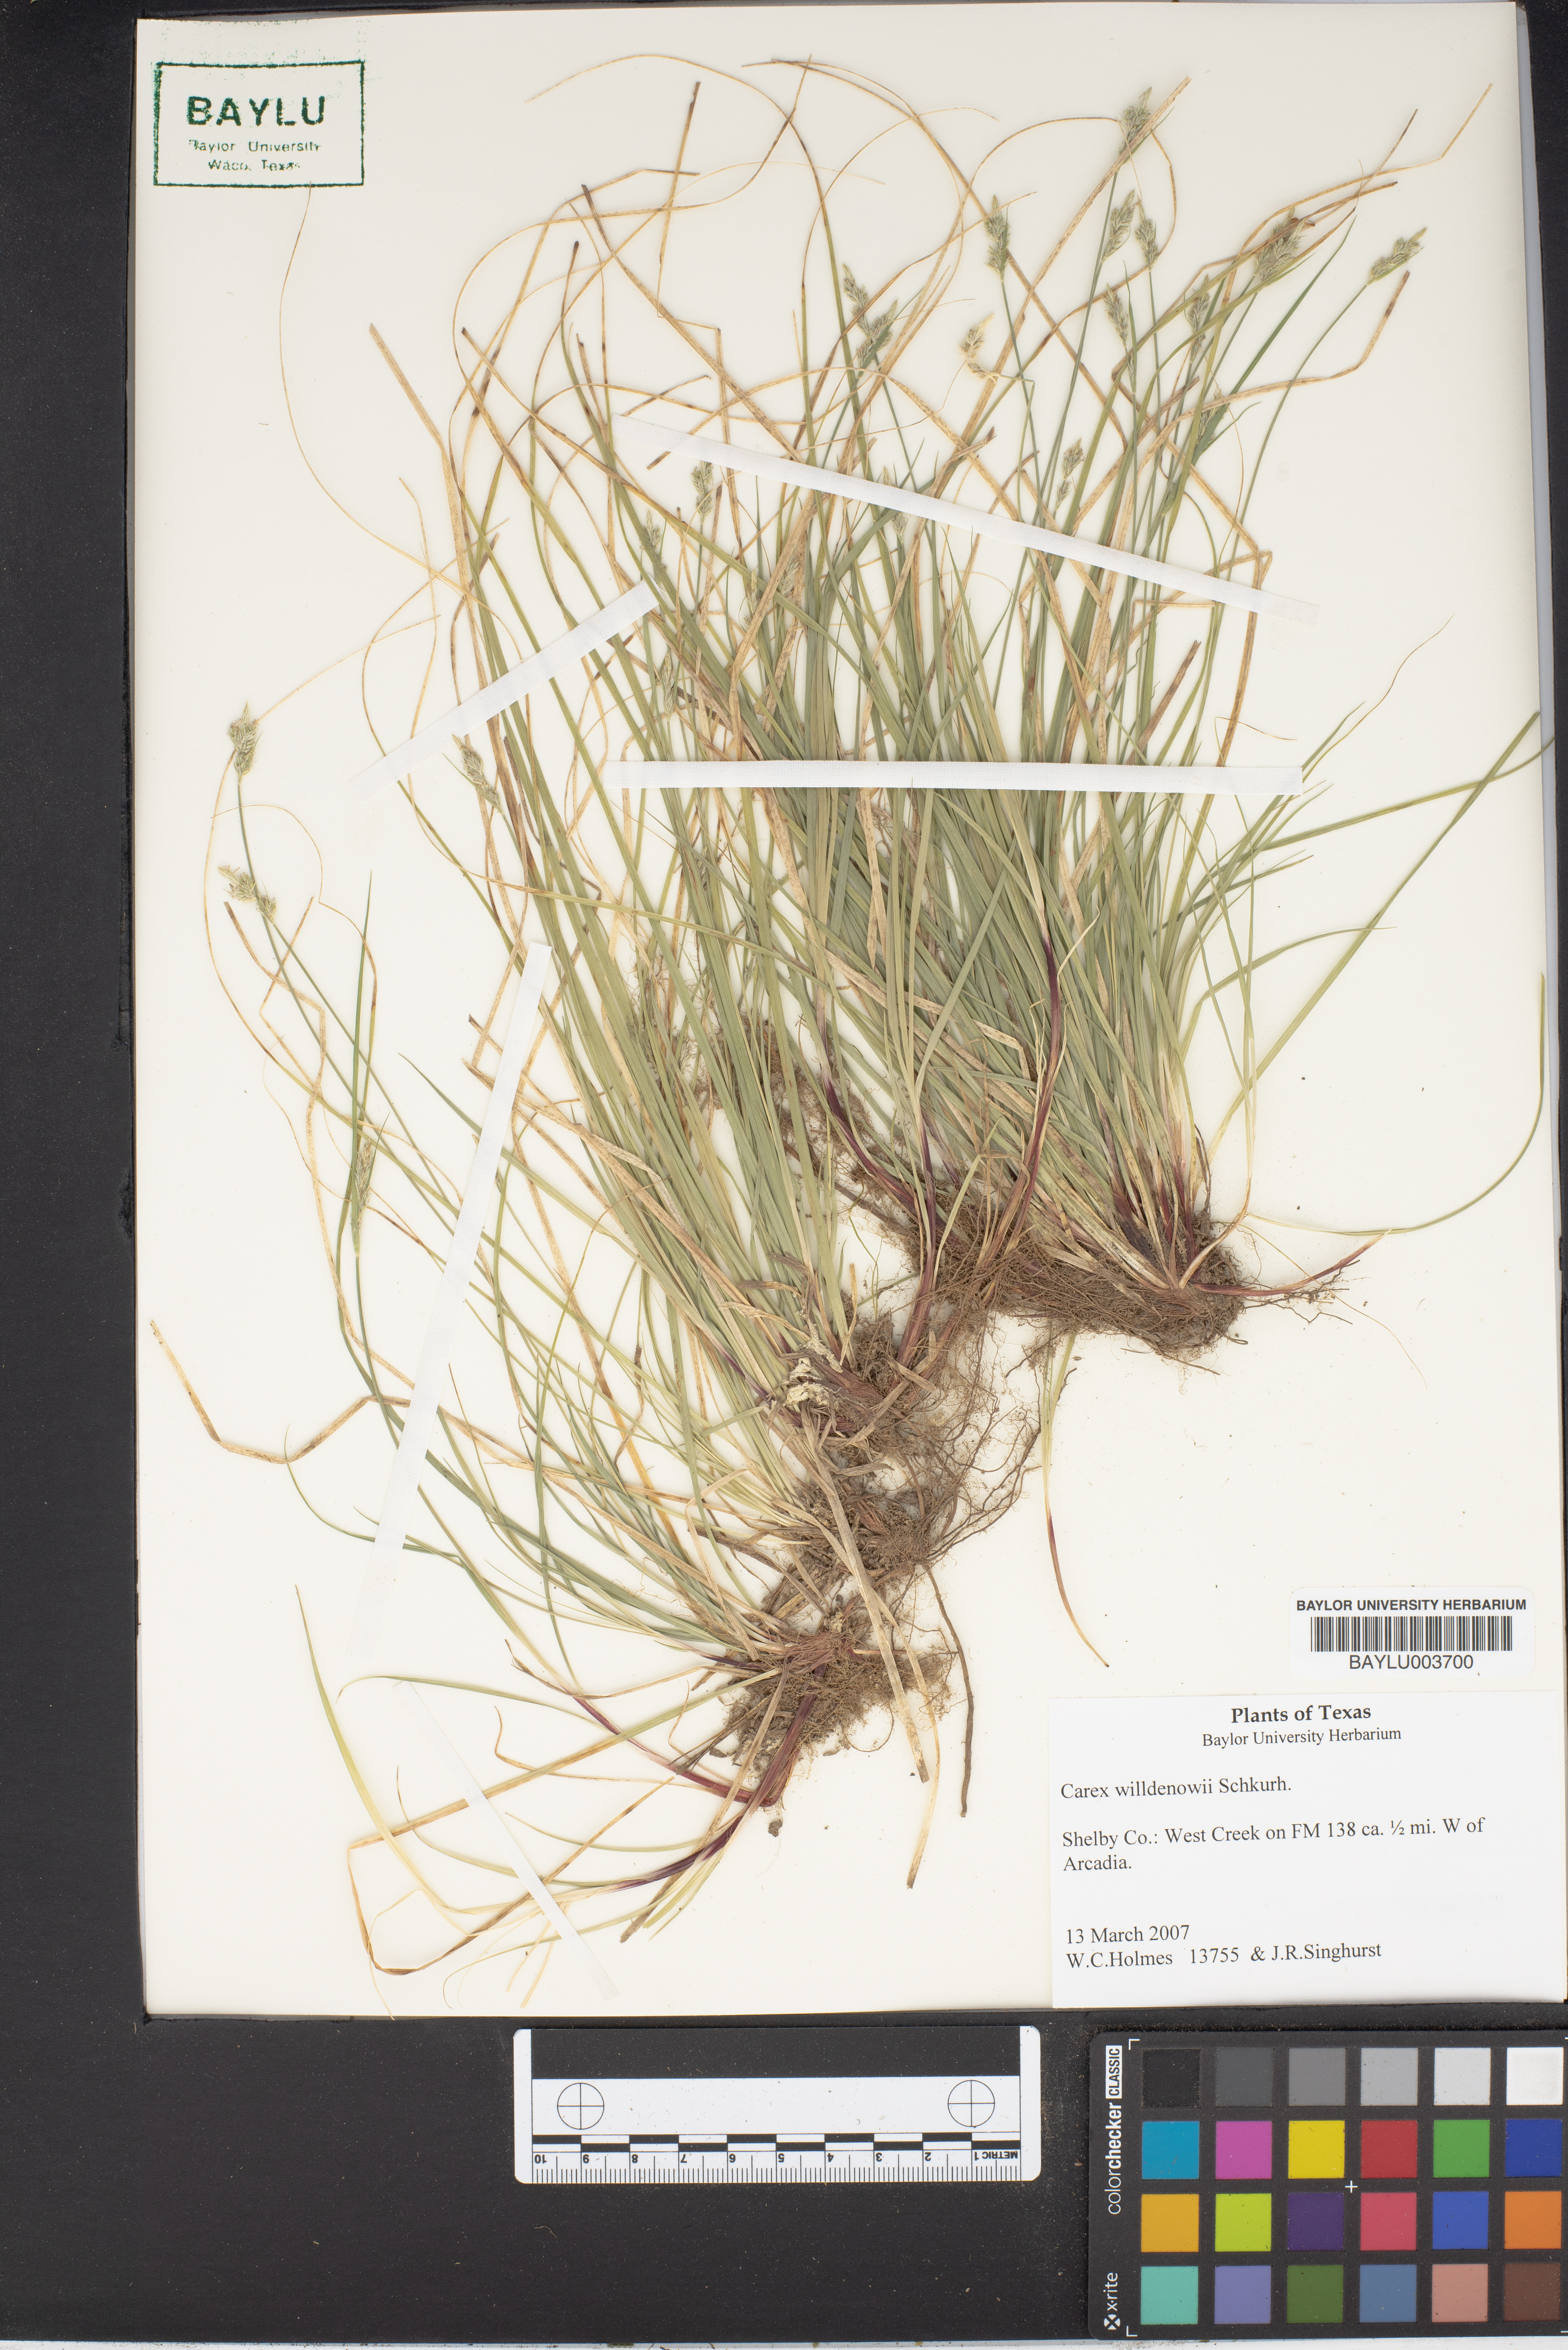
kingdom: Plantae
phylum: Tracheophyta
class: Liliopsida
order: Poales
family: Cyperaceae
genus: Carex
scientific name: Carex willdenowii
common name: Willdenow's sedge
